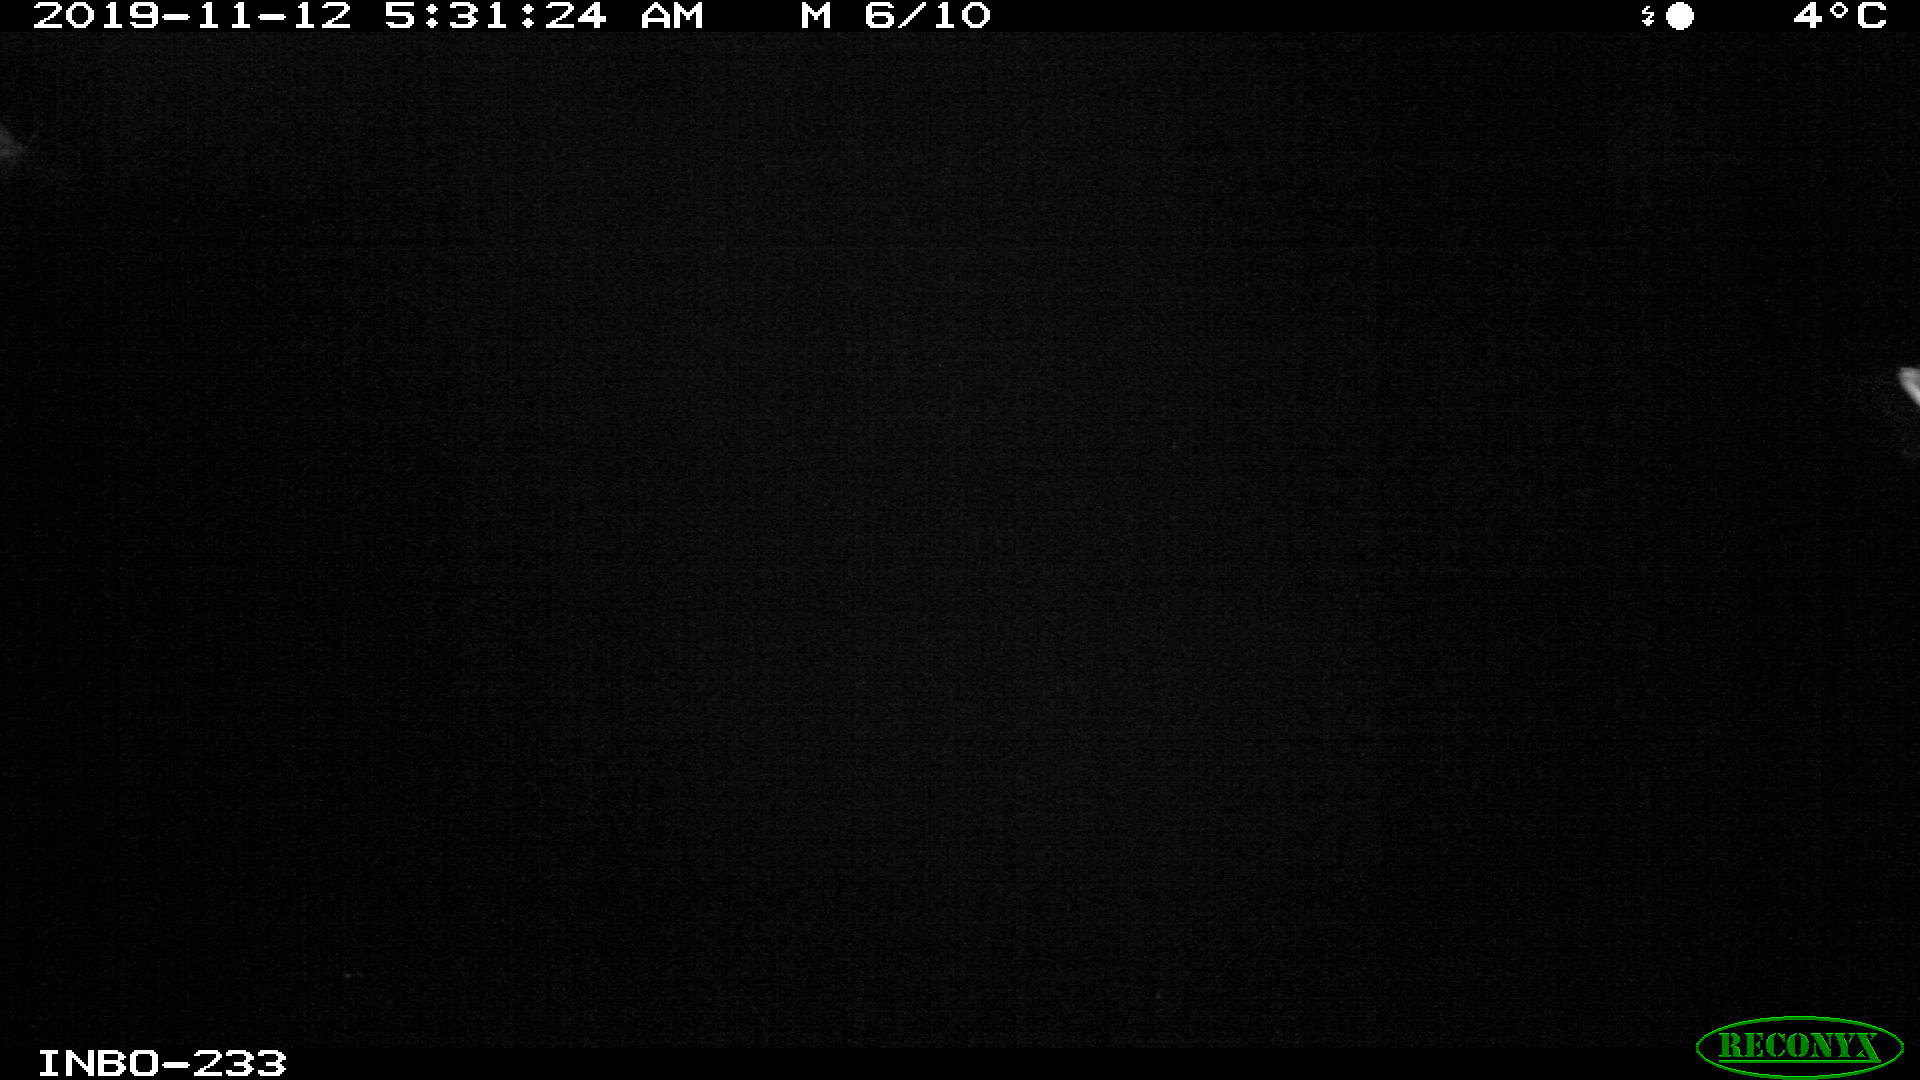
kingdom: Animalia
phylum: Chordata
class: Aves
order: Anseriformes
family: Anatidae
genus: Anas
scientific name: Anas platyrhynchos
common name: Mallard
